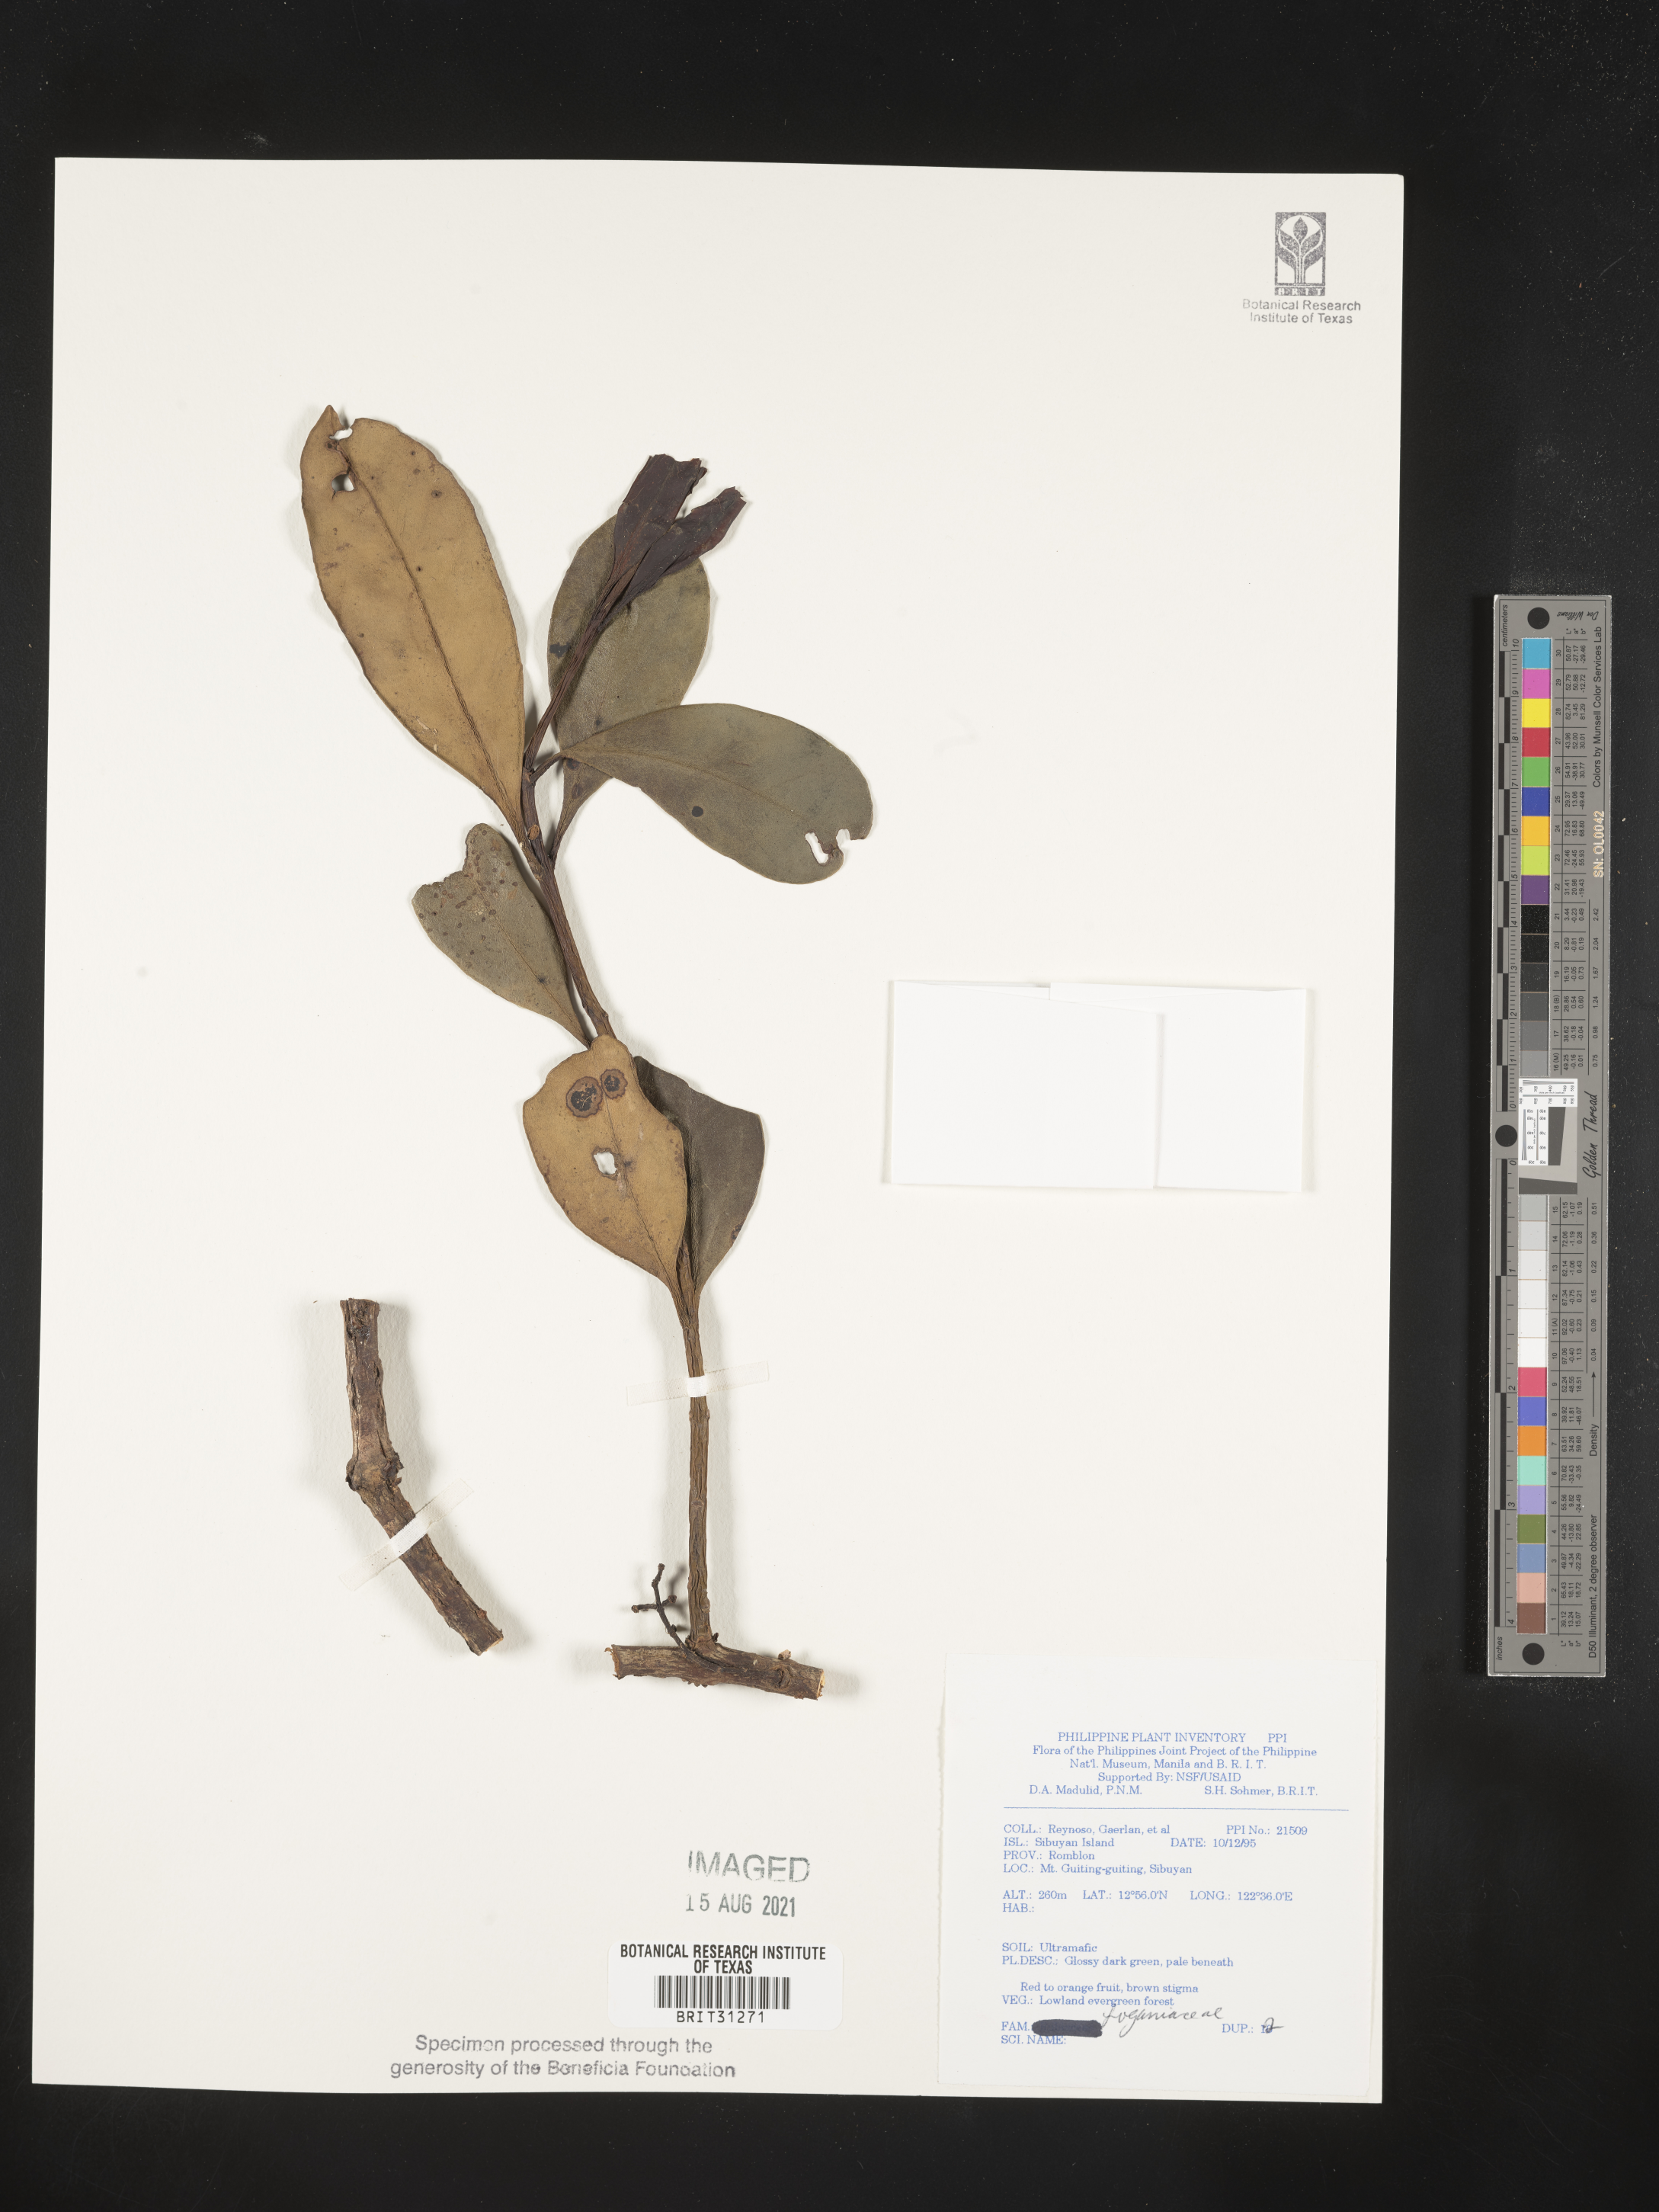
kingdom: Plantae
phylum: Tracheophyta
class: Magnoliopsida
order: Gentianales
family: Loganiaceae
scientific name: Loganiaceae
